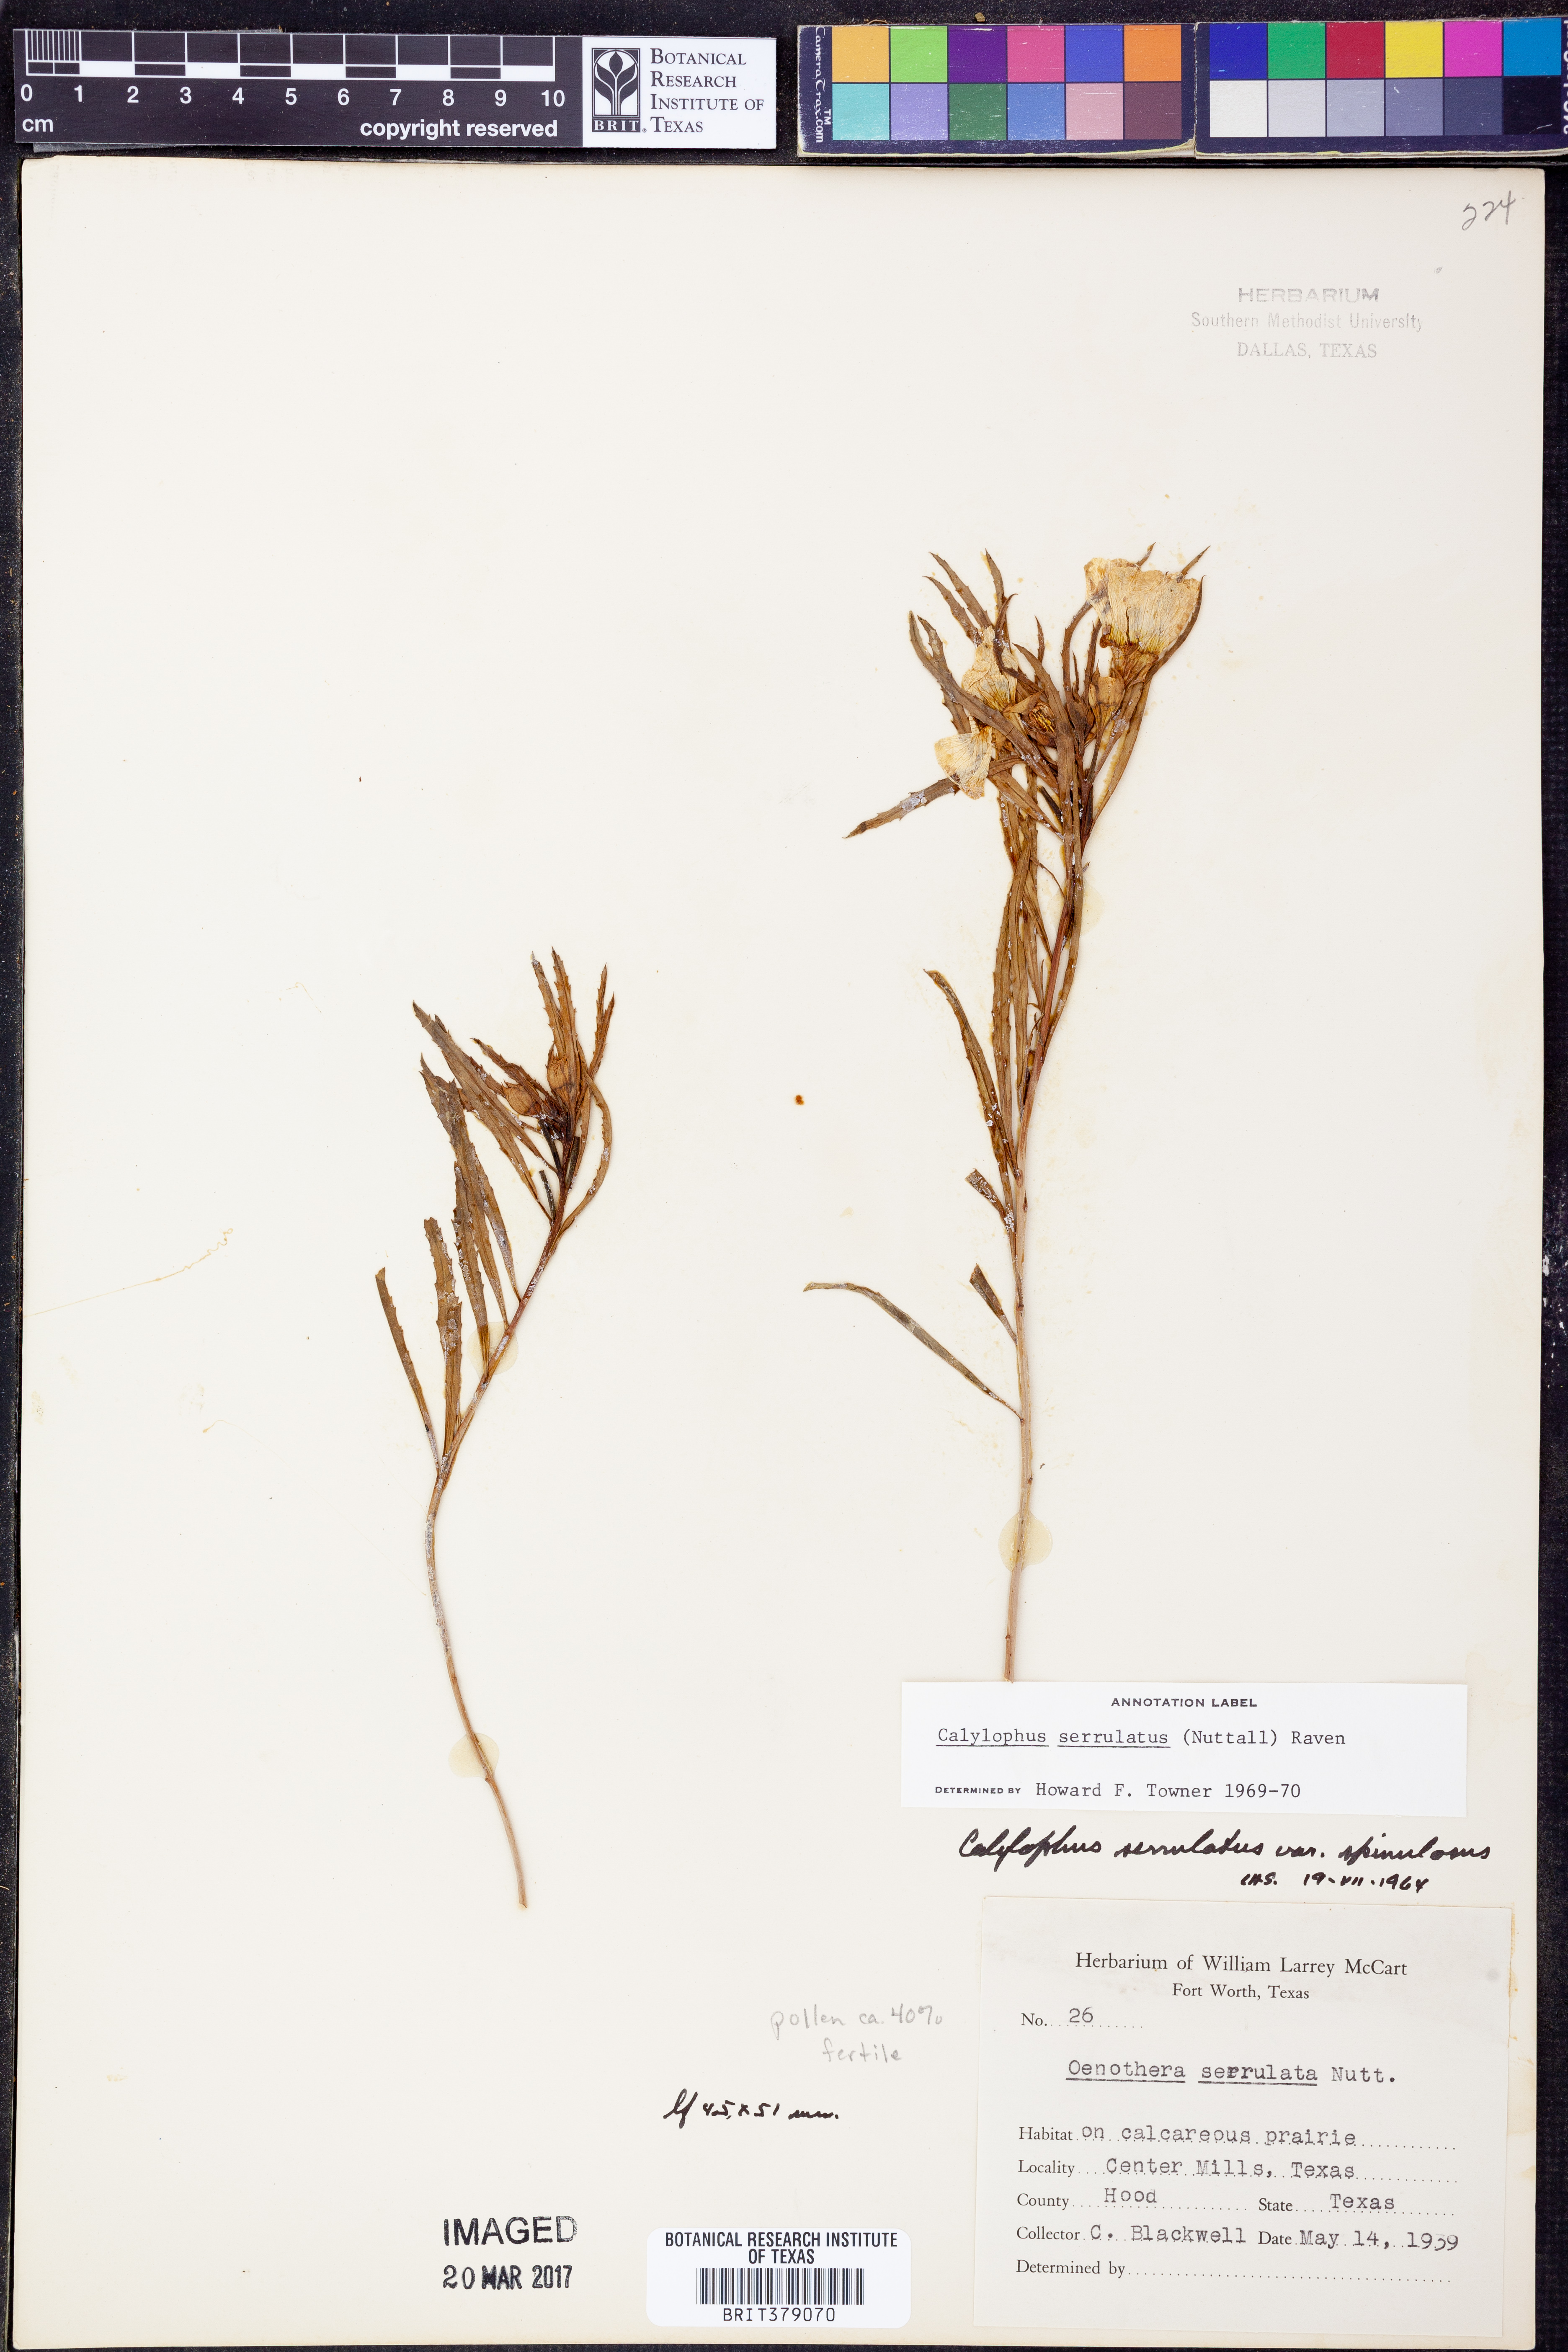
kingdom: Plantae
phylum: Tracheophyta
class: Magnoliopsida
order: Myrtales
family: Onagraceae
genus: Oenothera
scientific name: Oenothera serrulata
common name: Half-shrub calylophus
